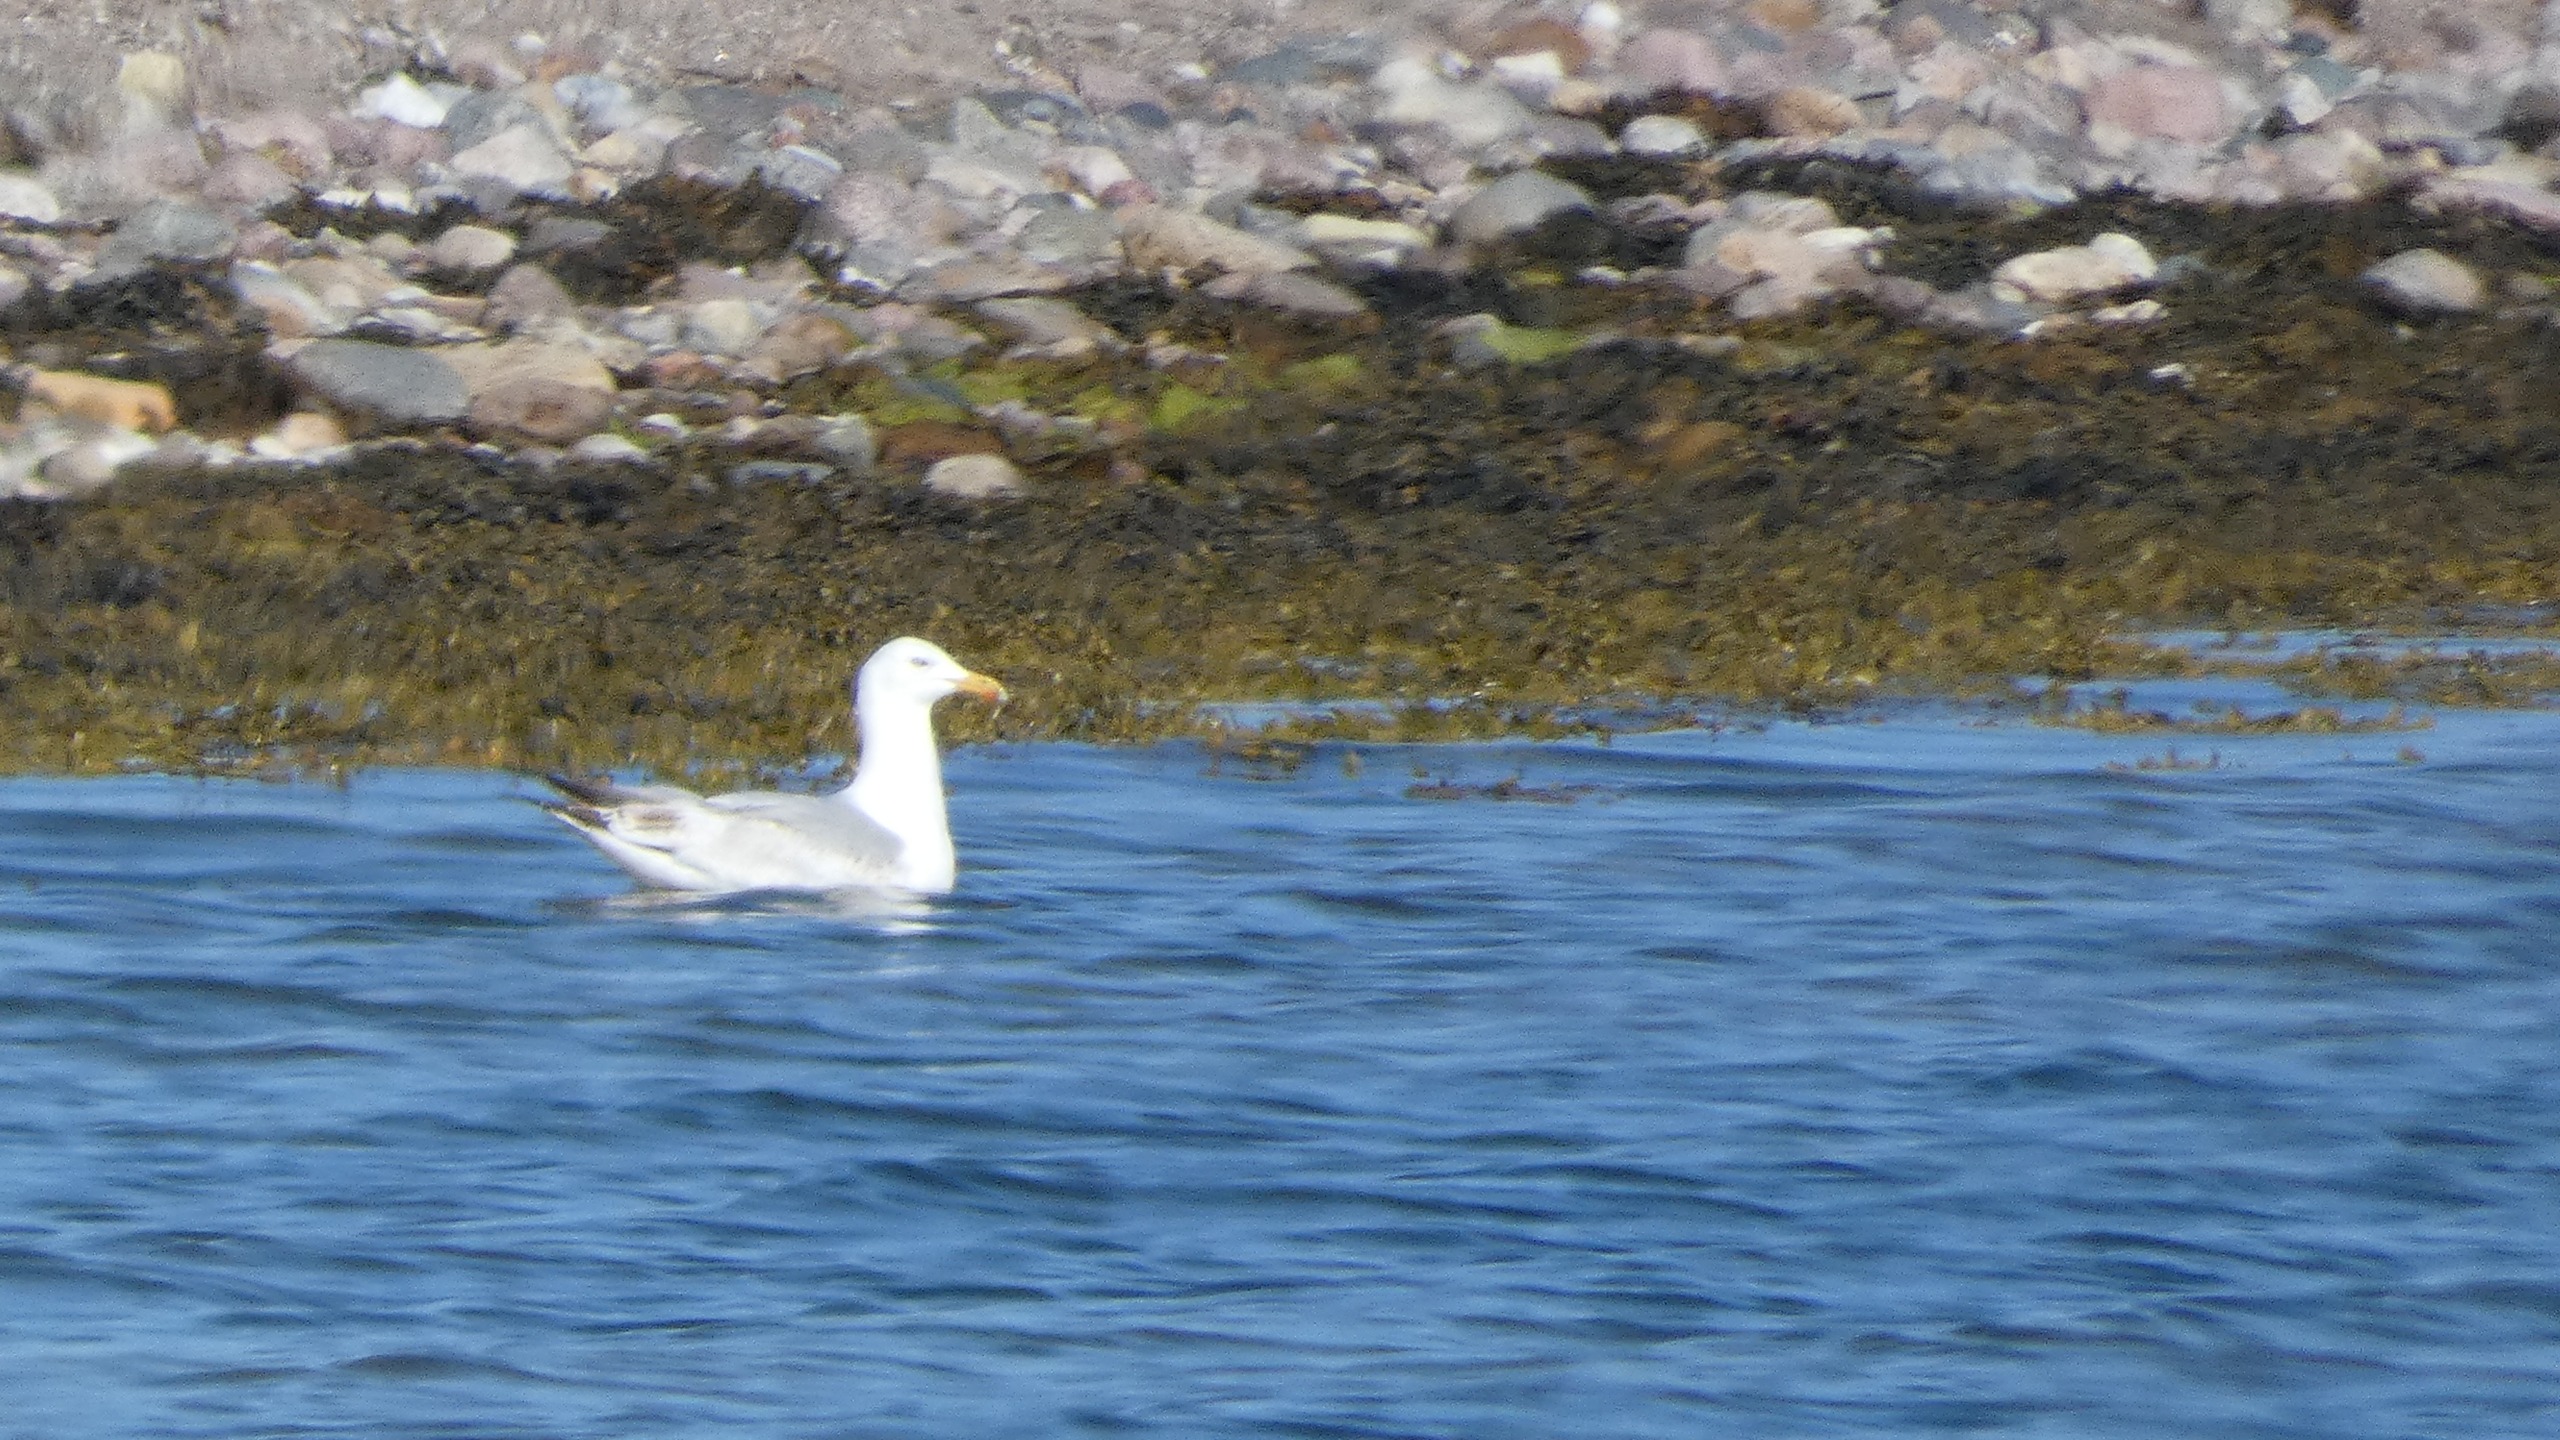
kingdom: Animalia
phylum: Chordata
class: Aves
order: Charadriiformes
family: Laridae
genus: Larus
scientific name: Larus argentatus
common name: Sølvmåge
